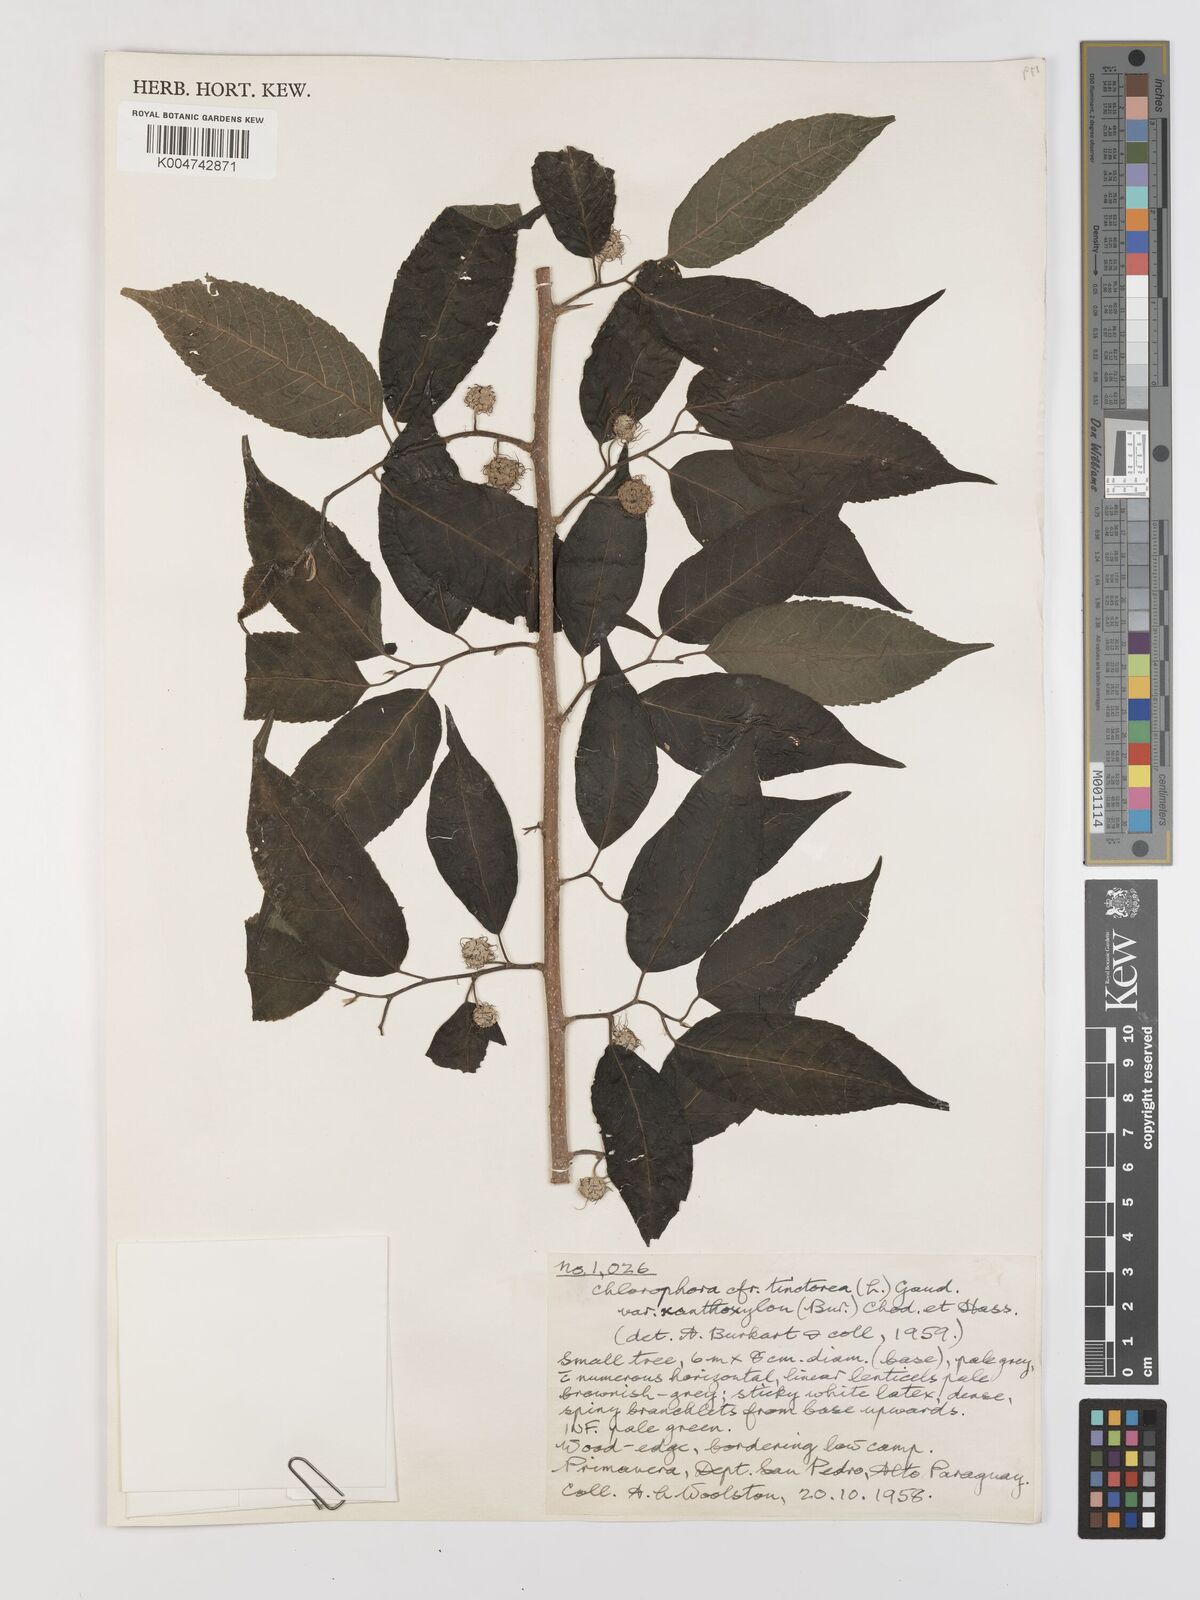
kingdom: Plantae
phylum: Tracheophyta
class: Magnoliopsida
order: Rosales
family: Moraceae
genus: Maclura
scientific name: Maclura tinctoria
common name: Old fustic
